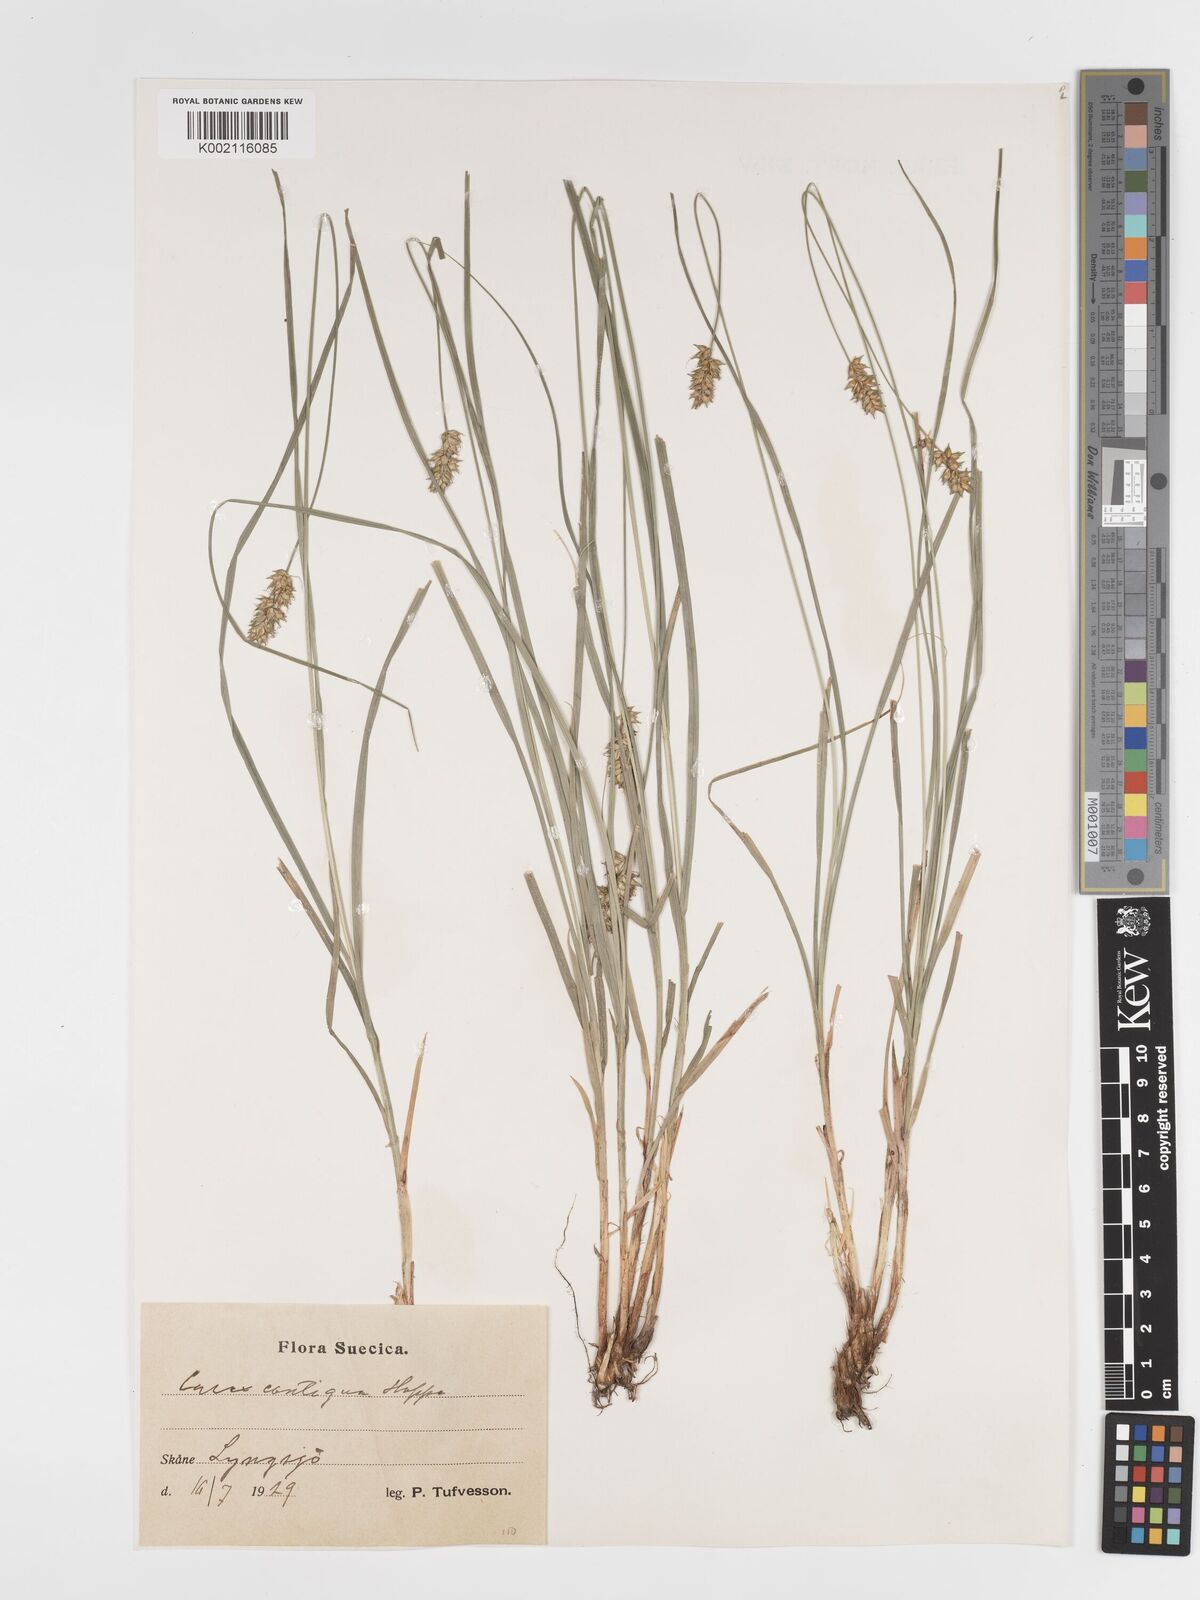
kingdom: Plantae
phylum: Tracheophyta
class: Liliopsida
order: Poales
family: Cyperaceae
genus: Carex
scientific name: Carex spicata
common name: Spiked sedge
